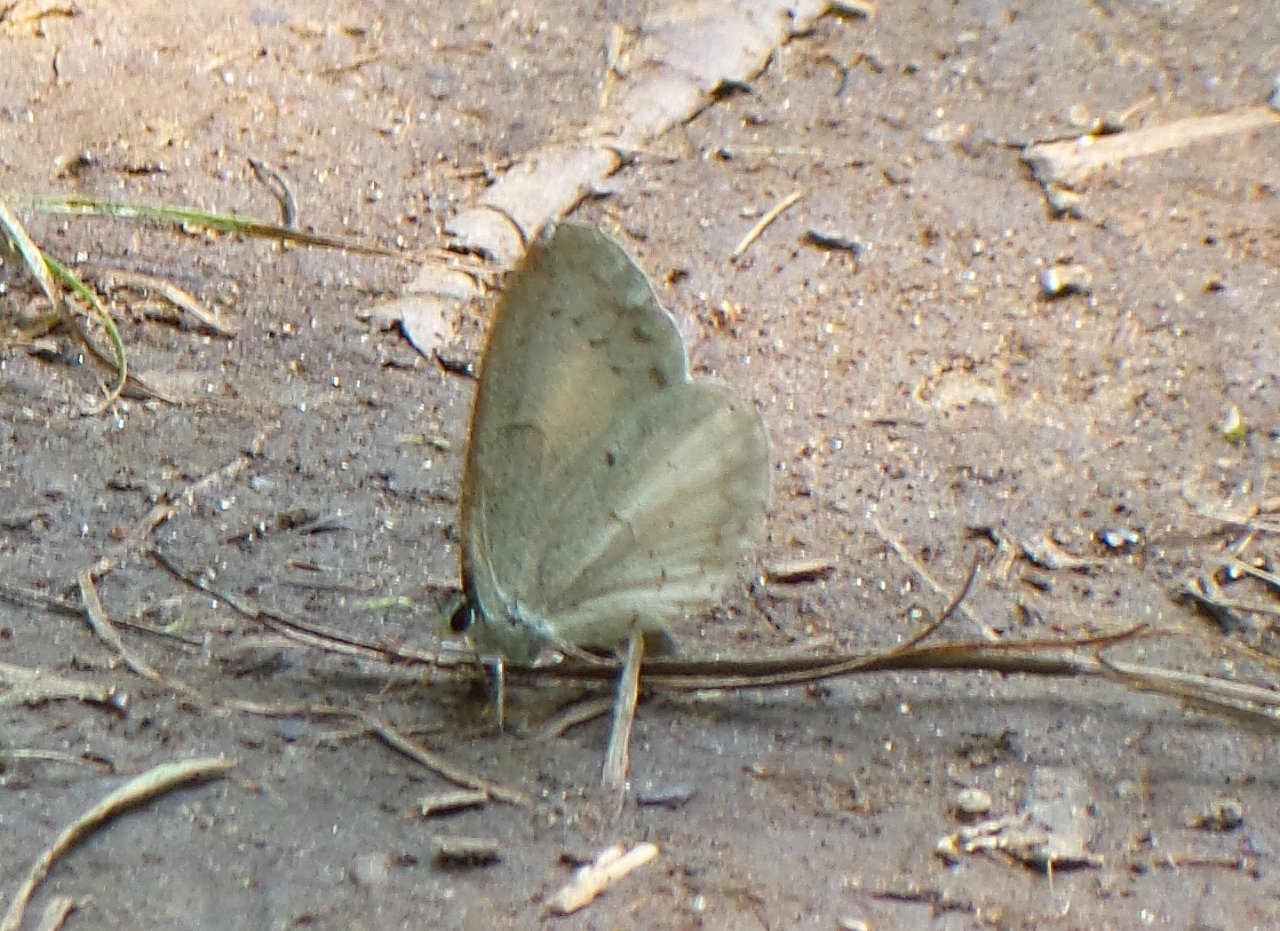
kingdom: Animalia
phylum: Arthropoda
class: Insecta
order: Lepidoptera
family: Lycaenidae
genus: Celastrina
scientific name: Celastrina
